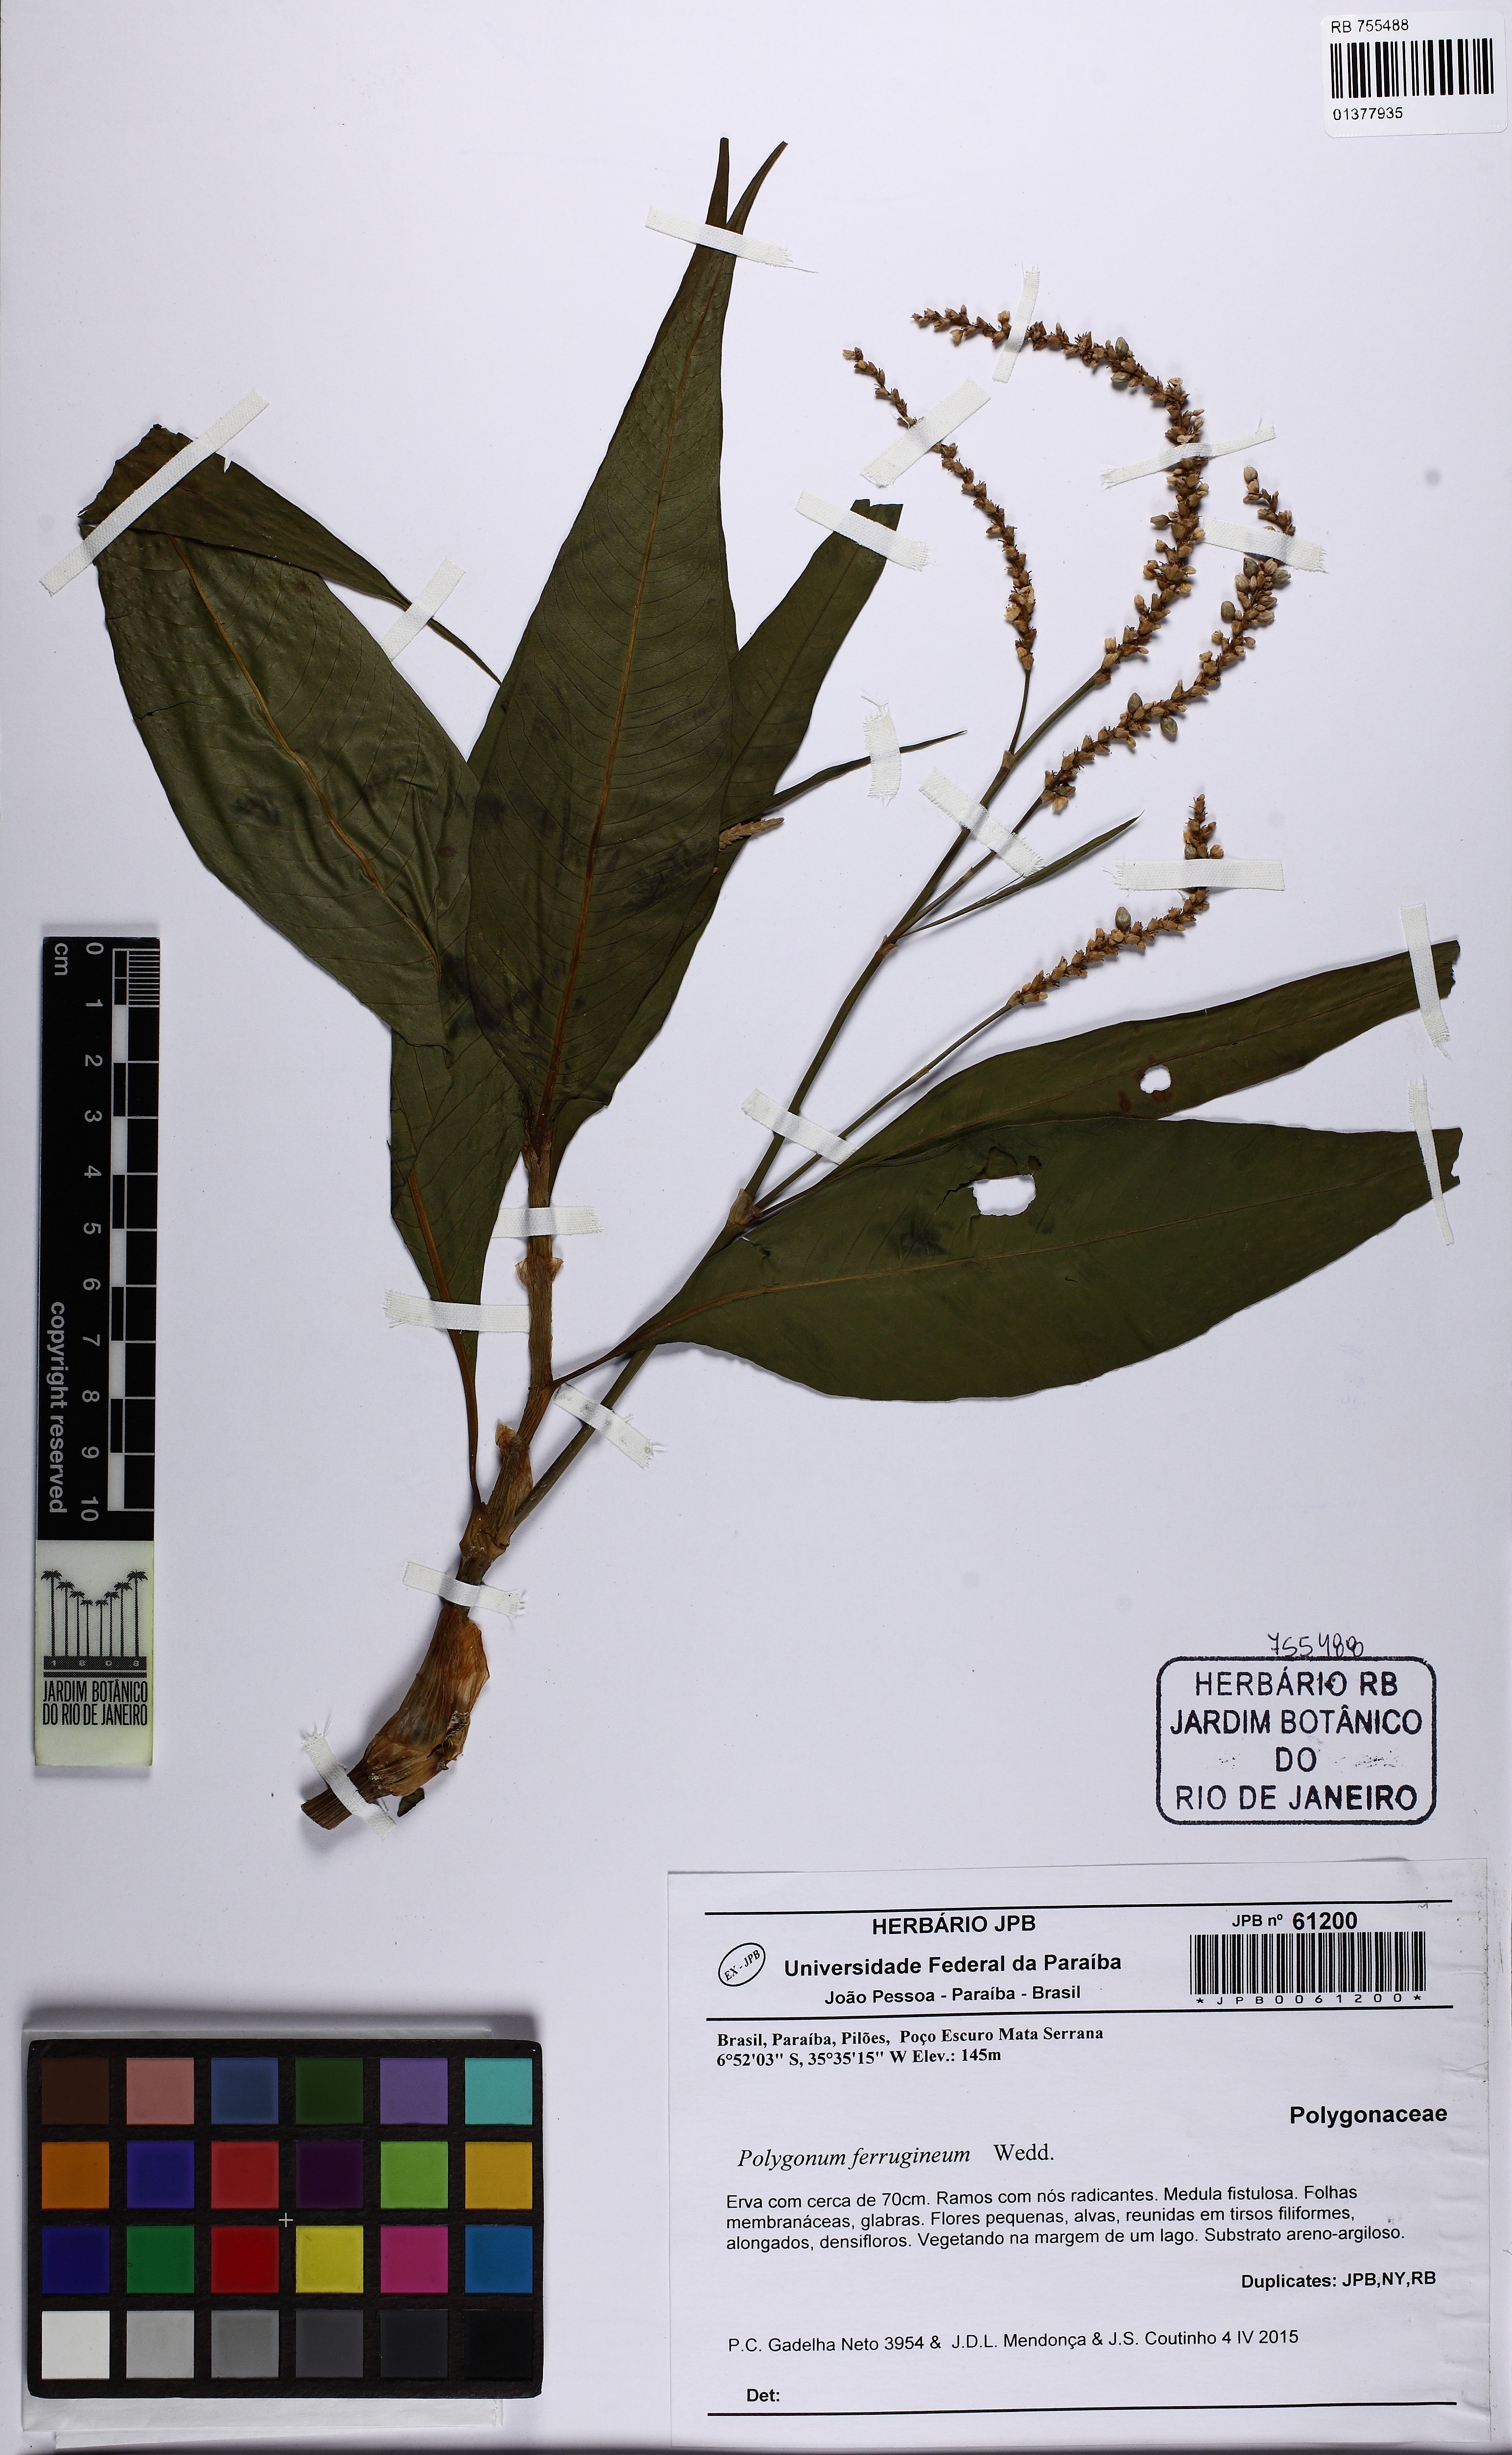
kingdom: Plantae
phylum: Tracheophyta
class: Magnoliopsida
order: Caryophyllales
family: Polygonaceae
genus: Persicaria
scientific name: Persicaria ferruginea
